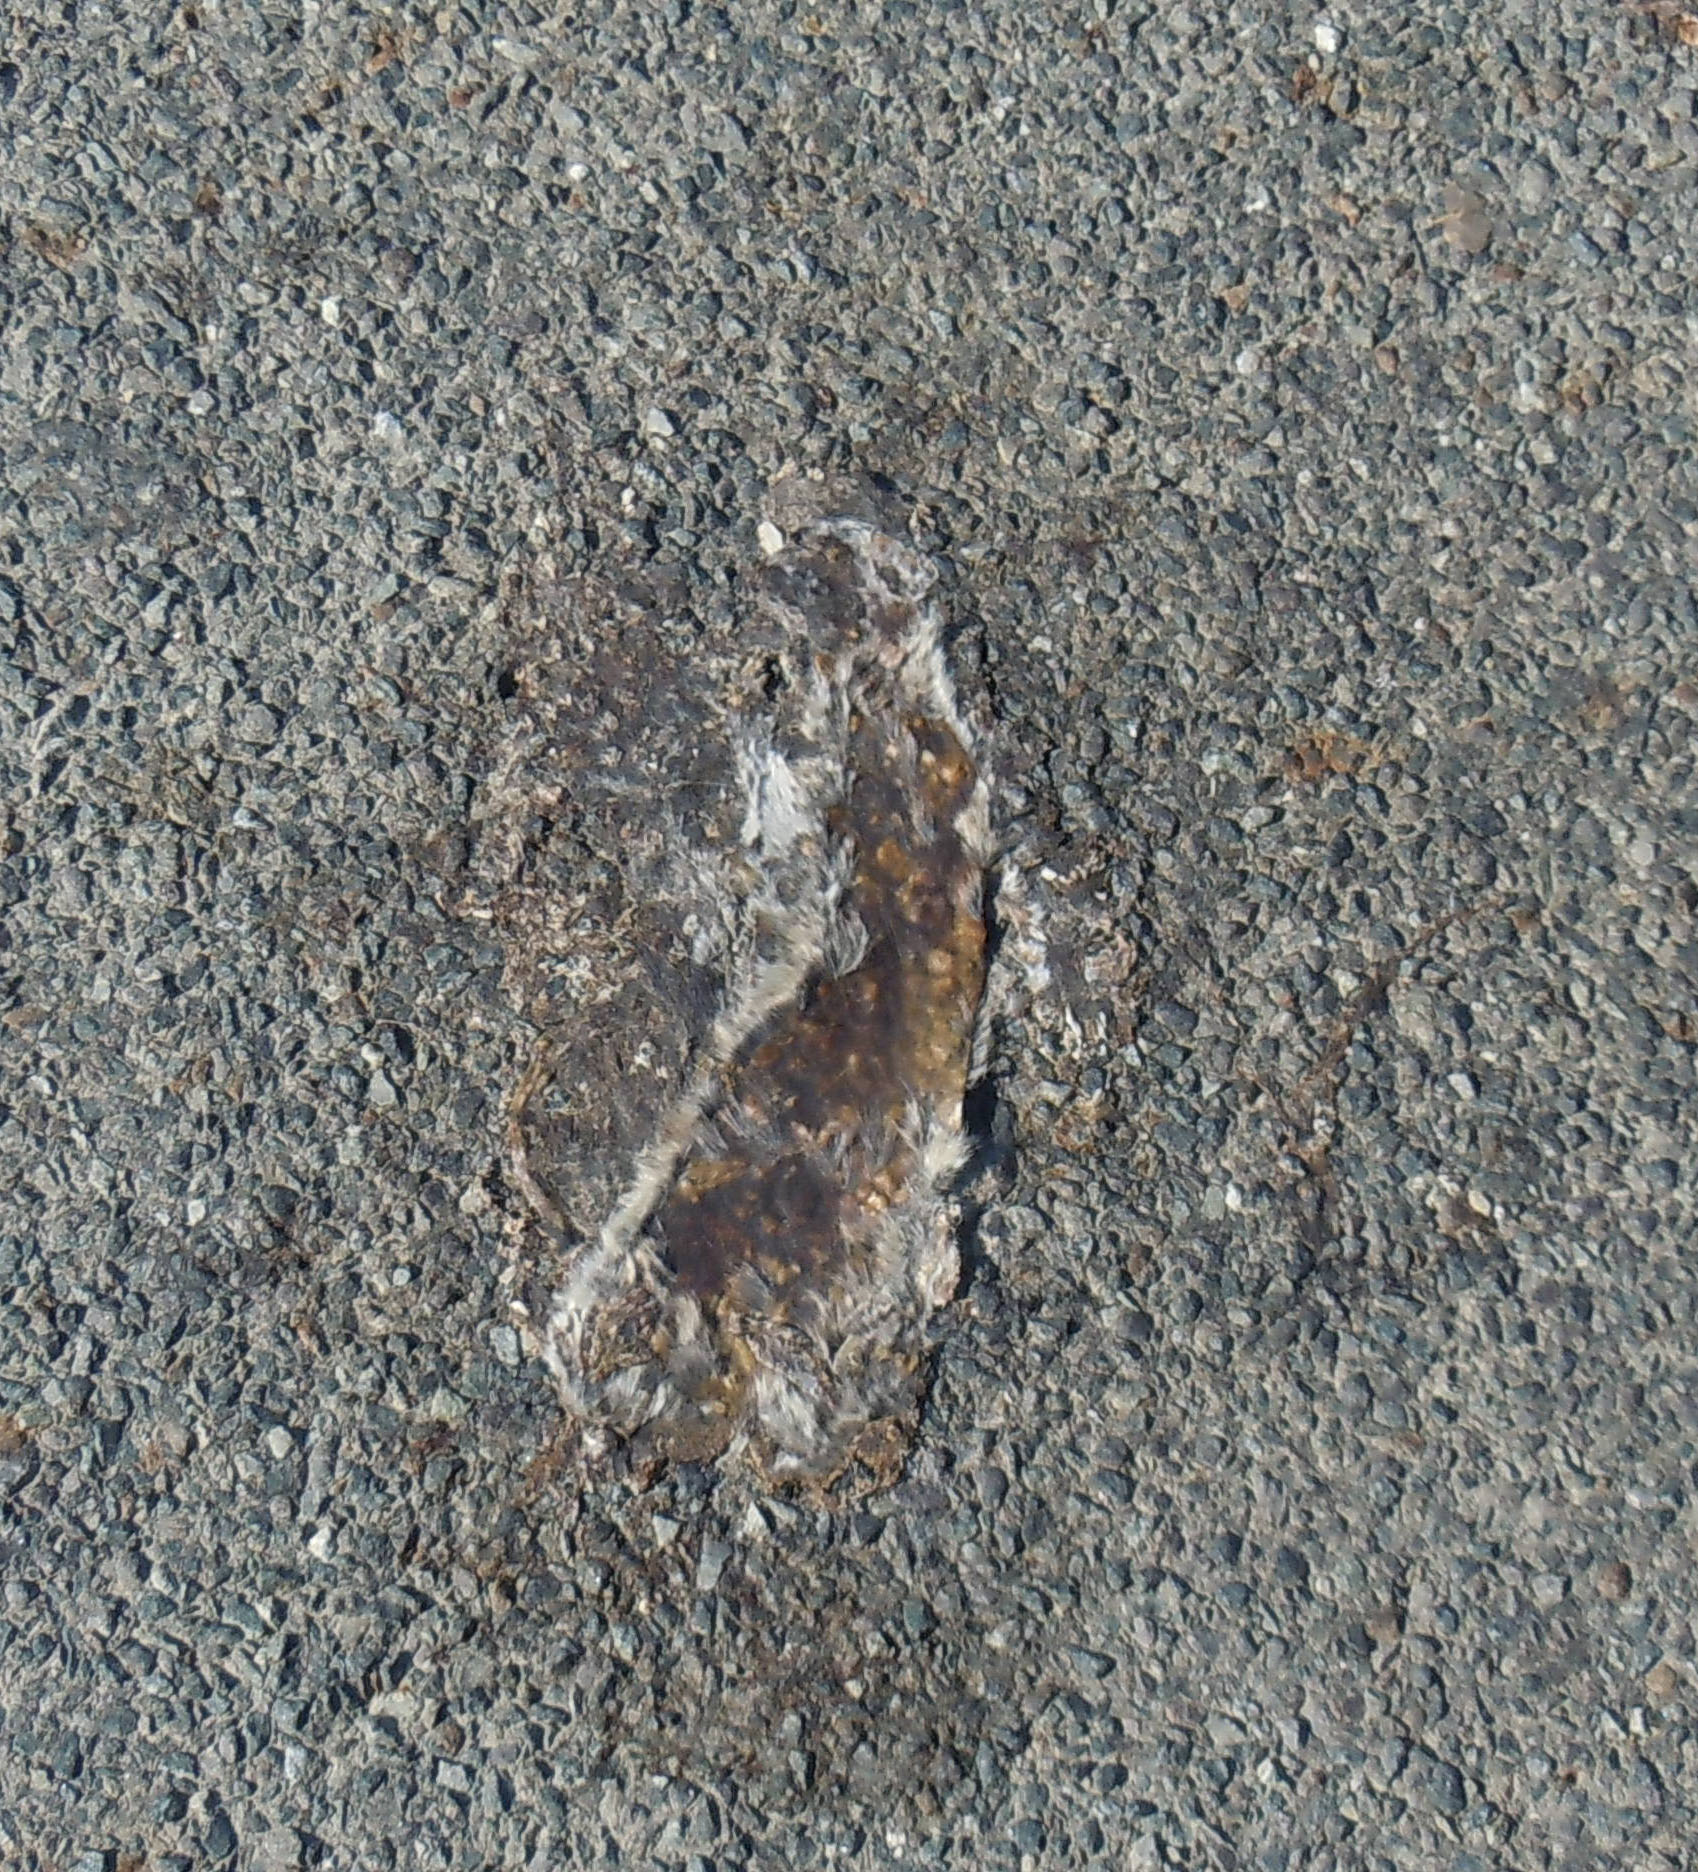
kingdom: Animalia
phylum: Chordata
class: Mammalia
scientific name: Mammalia
